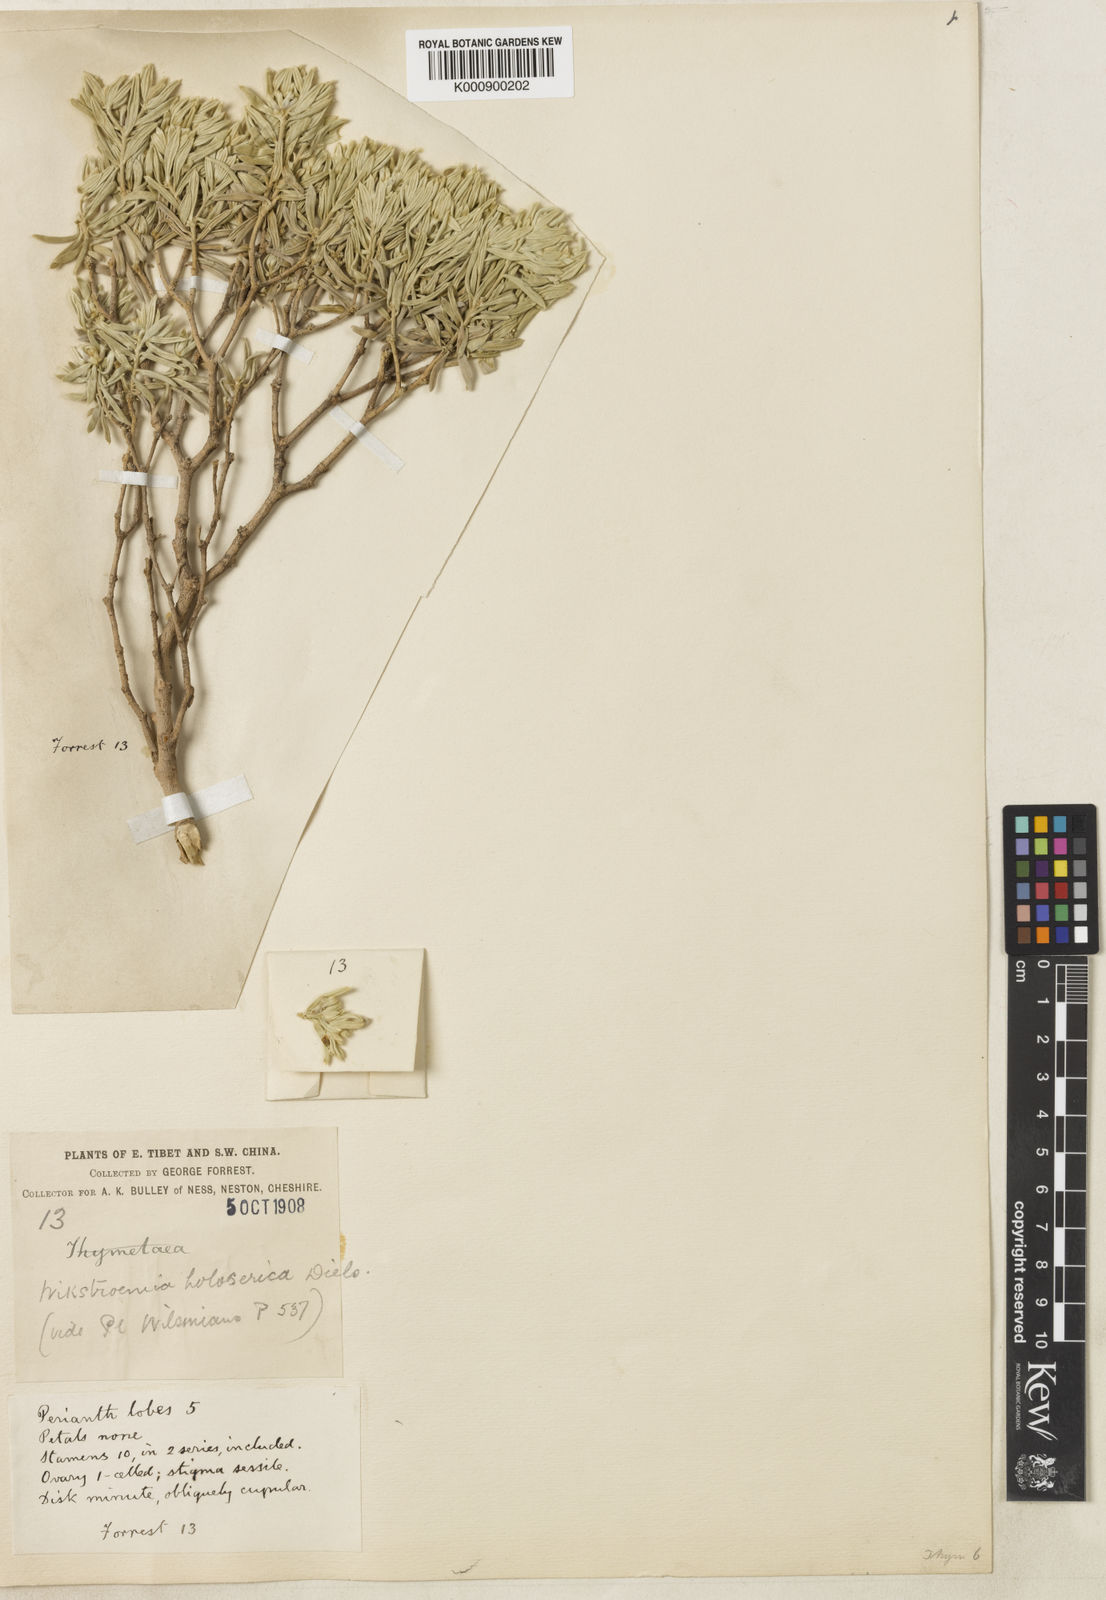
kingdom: Plantae
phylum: Tracheophyta
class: Magnoliopsida
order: Malvales
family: Thymelaeaceae
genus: Wikstroemia
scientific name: Wikstroemia holosericea
